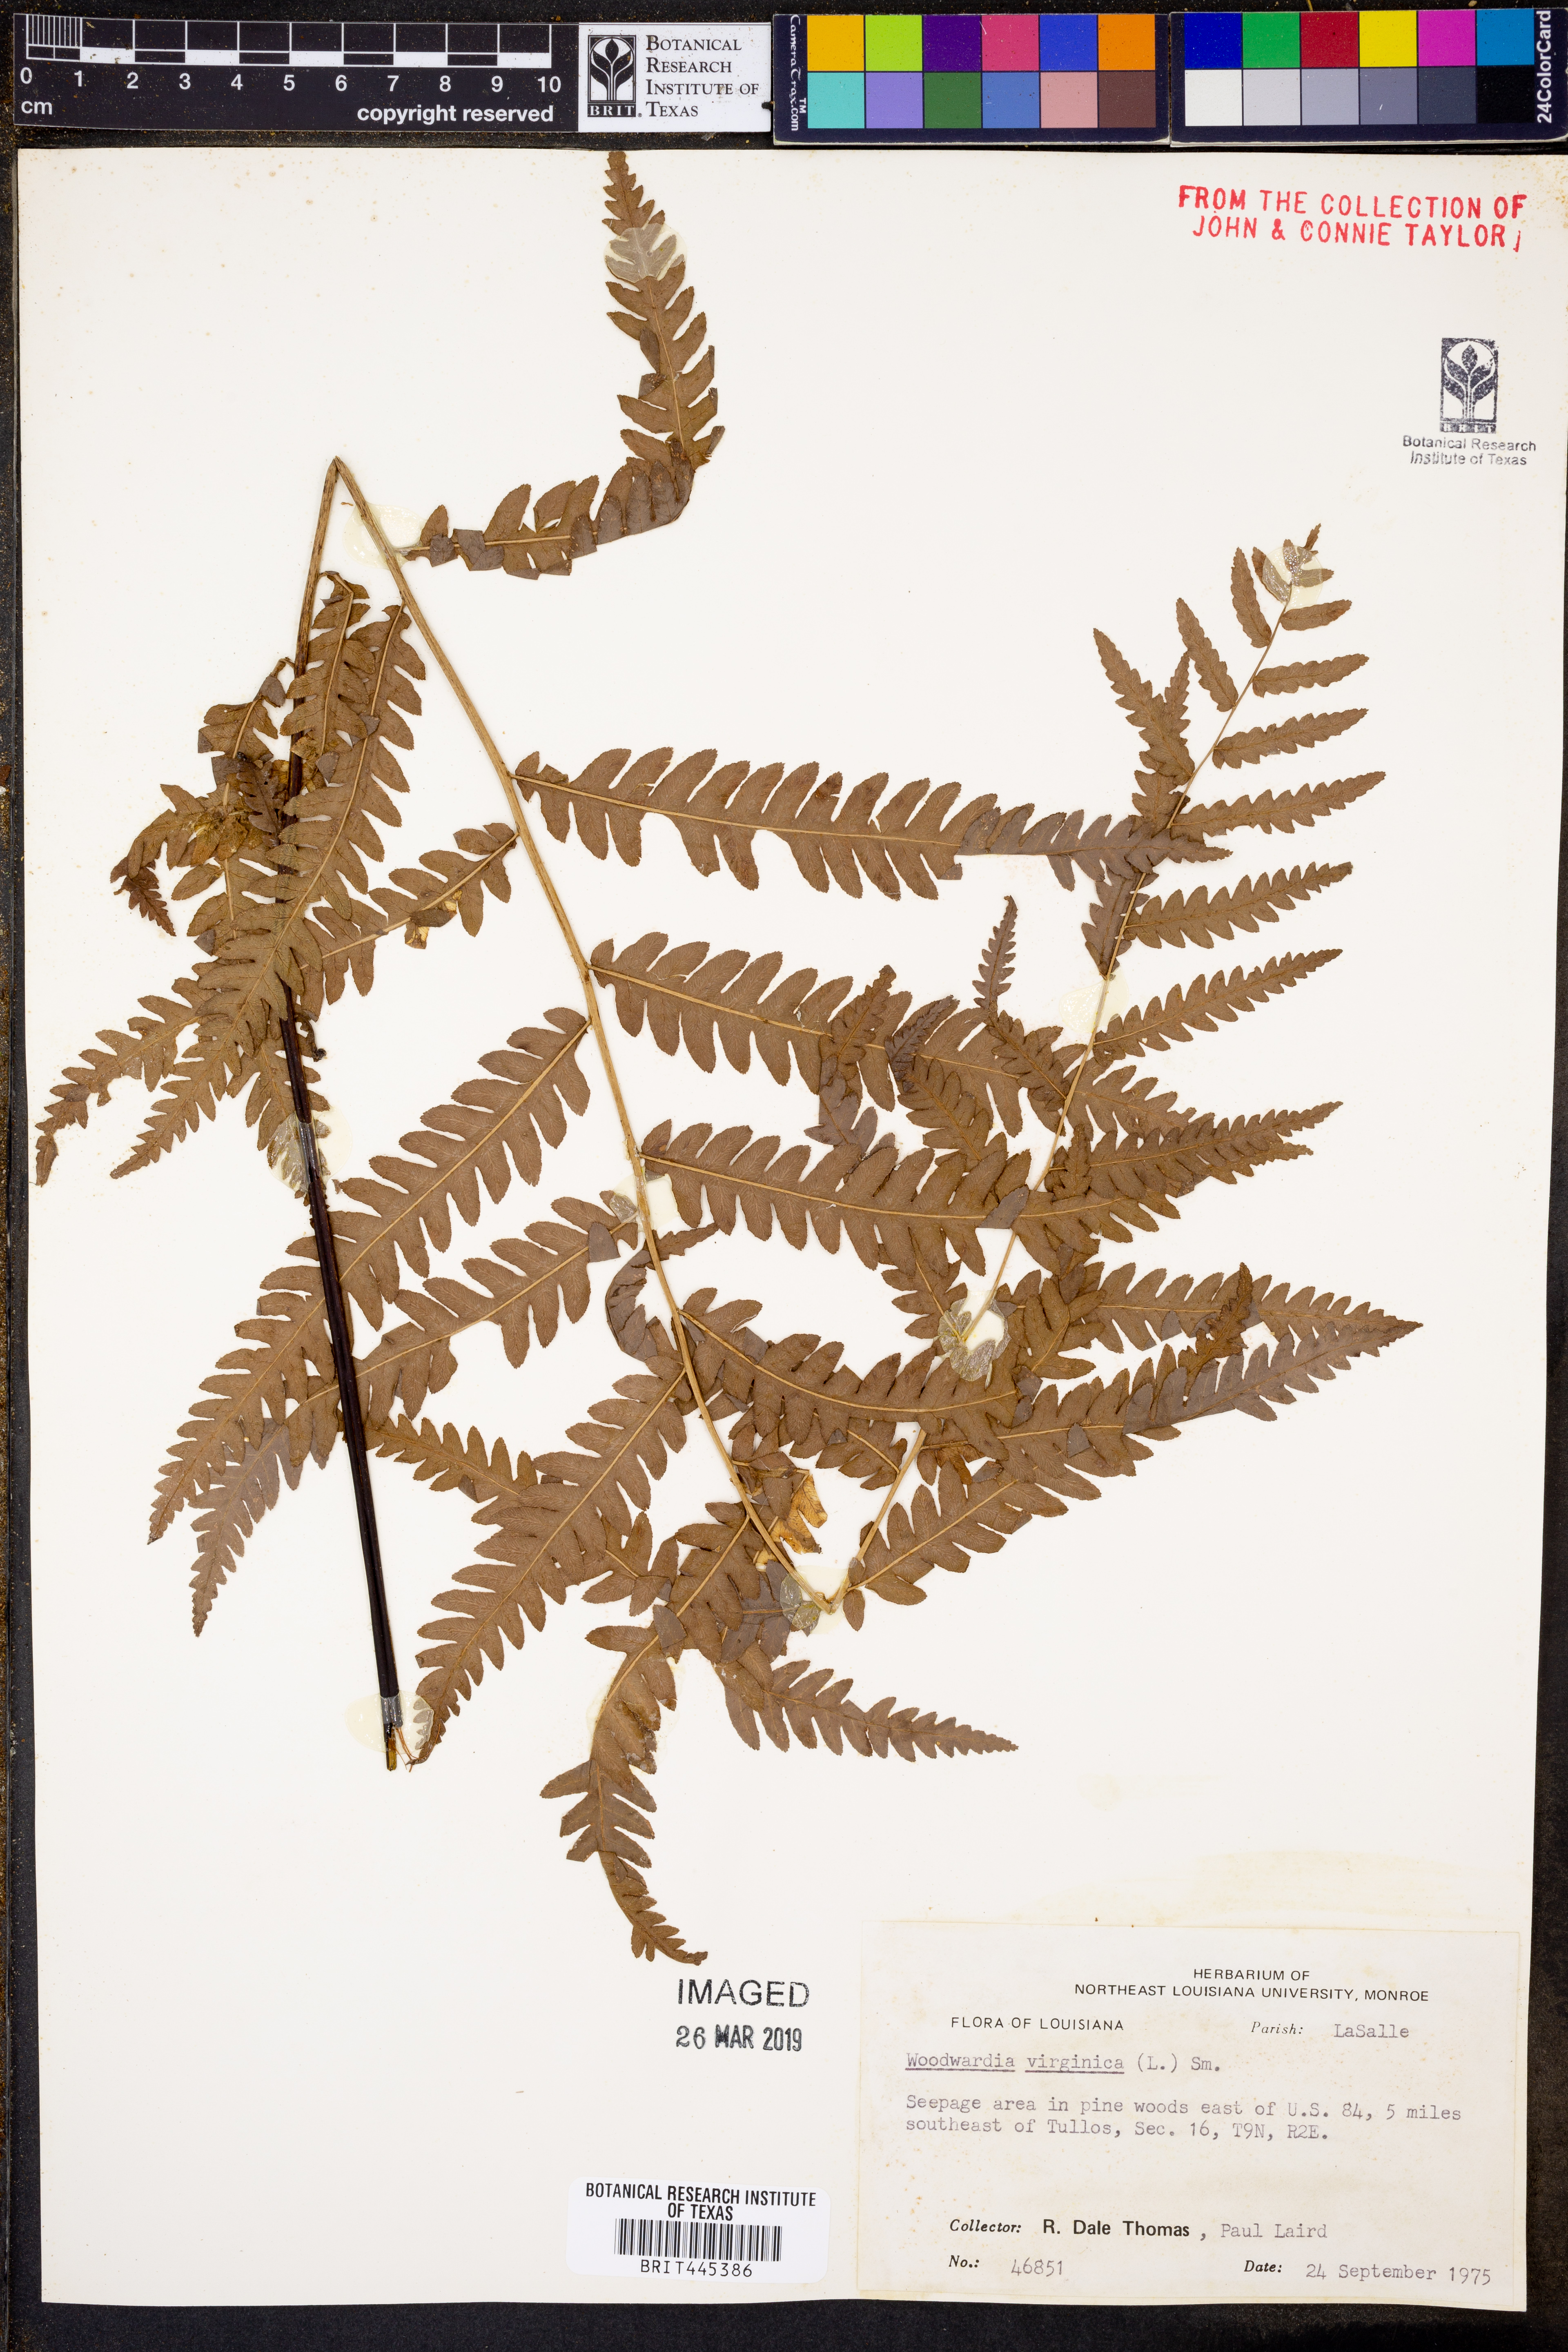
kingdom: Plantae
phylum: Tracheophyta
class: Polypodiopsida
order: Polypodiales
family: Blechnaceae
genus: Anchistea
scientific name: Anchistea virginica
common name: Virginia chain fern
